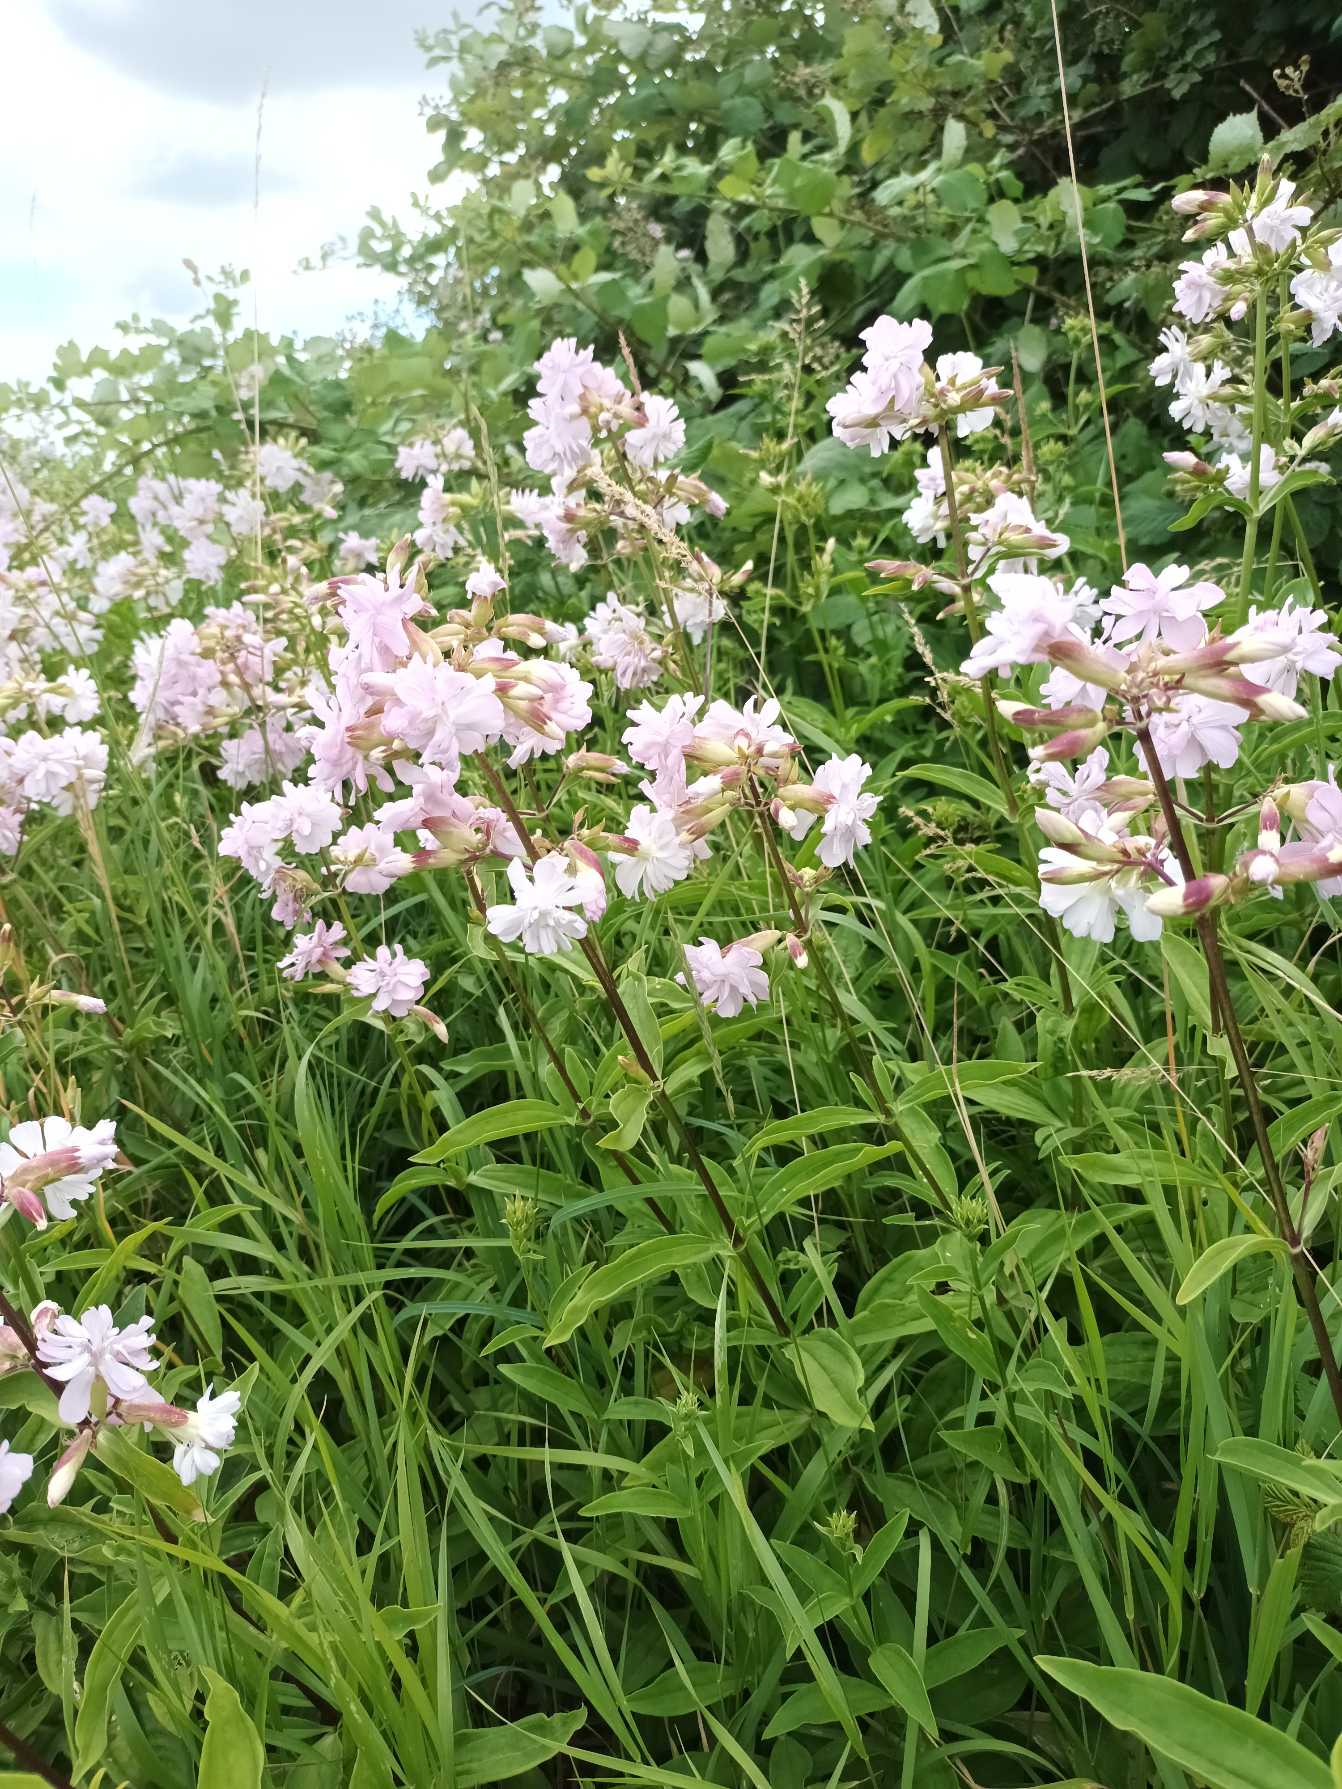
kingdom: Plantae
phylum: Tracheophyta
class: Magnoliopsida
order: Caryophyllales
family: Caryophyllaceae
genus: Saponaria
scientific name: Saponaria officinalis
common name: Sæbeurt
